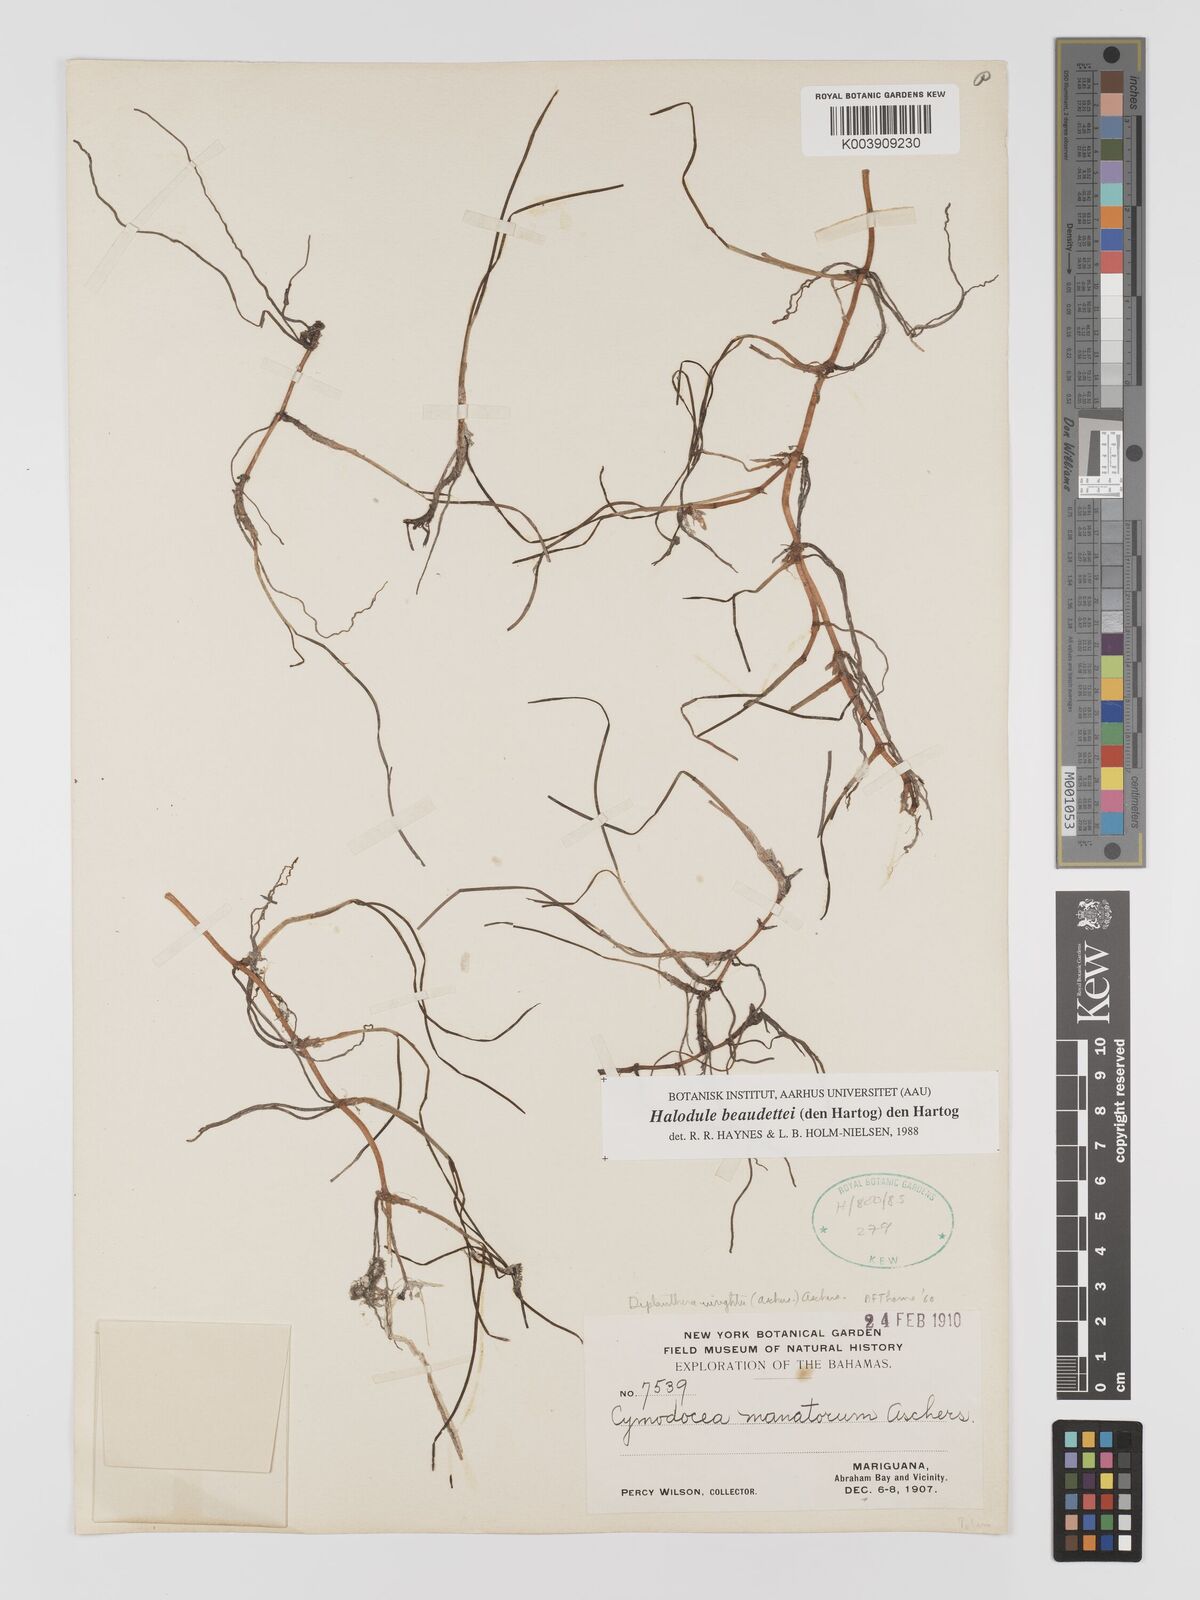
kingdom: Plantae
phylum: Tracheophyta
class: Liliopsida
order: Alismatales
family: Cymodoceaceae
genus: Halodule
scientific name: Halodule wrightii
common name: Shoalgrass
